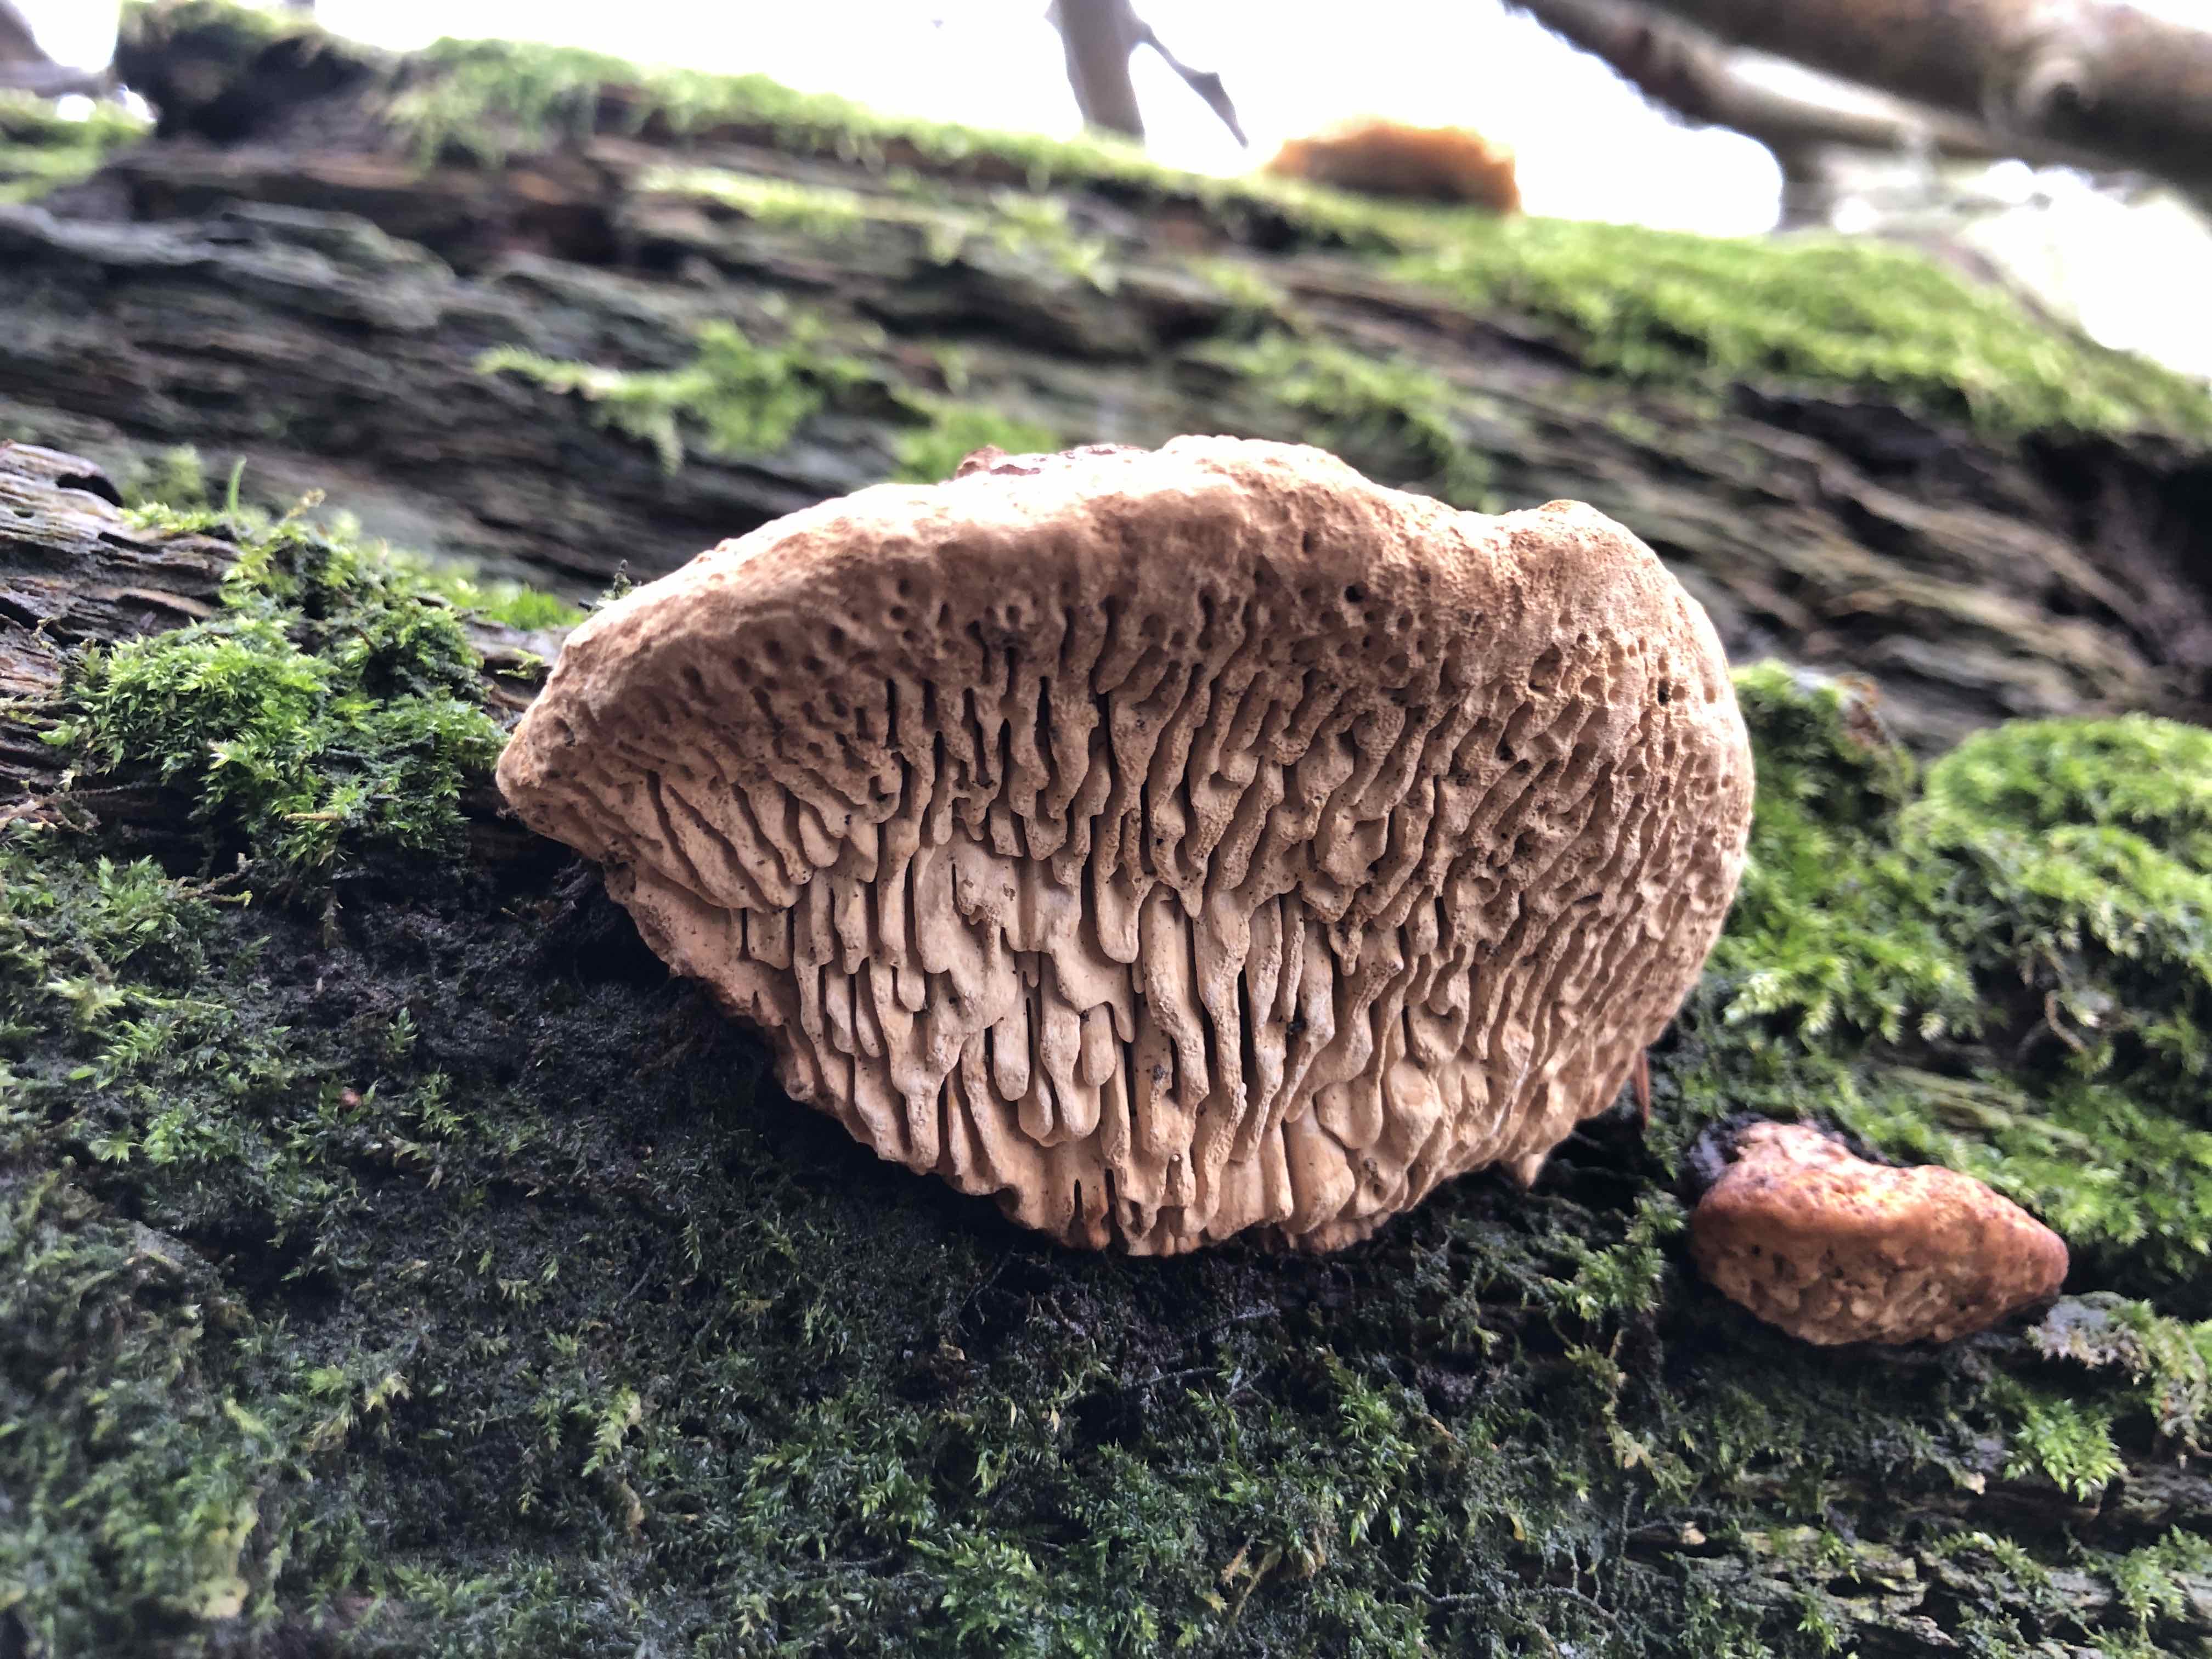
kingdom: Fungi
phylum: Basidiomycota
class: Agaricomycetes
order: Polyporales
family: Fomitopsidaceae
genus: Daedalea
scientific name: Daedalea quercina
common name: ege-labyrintsvamp
